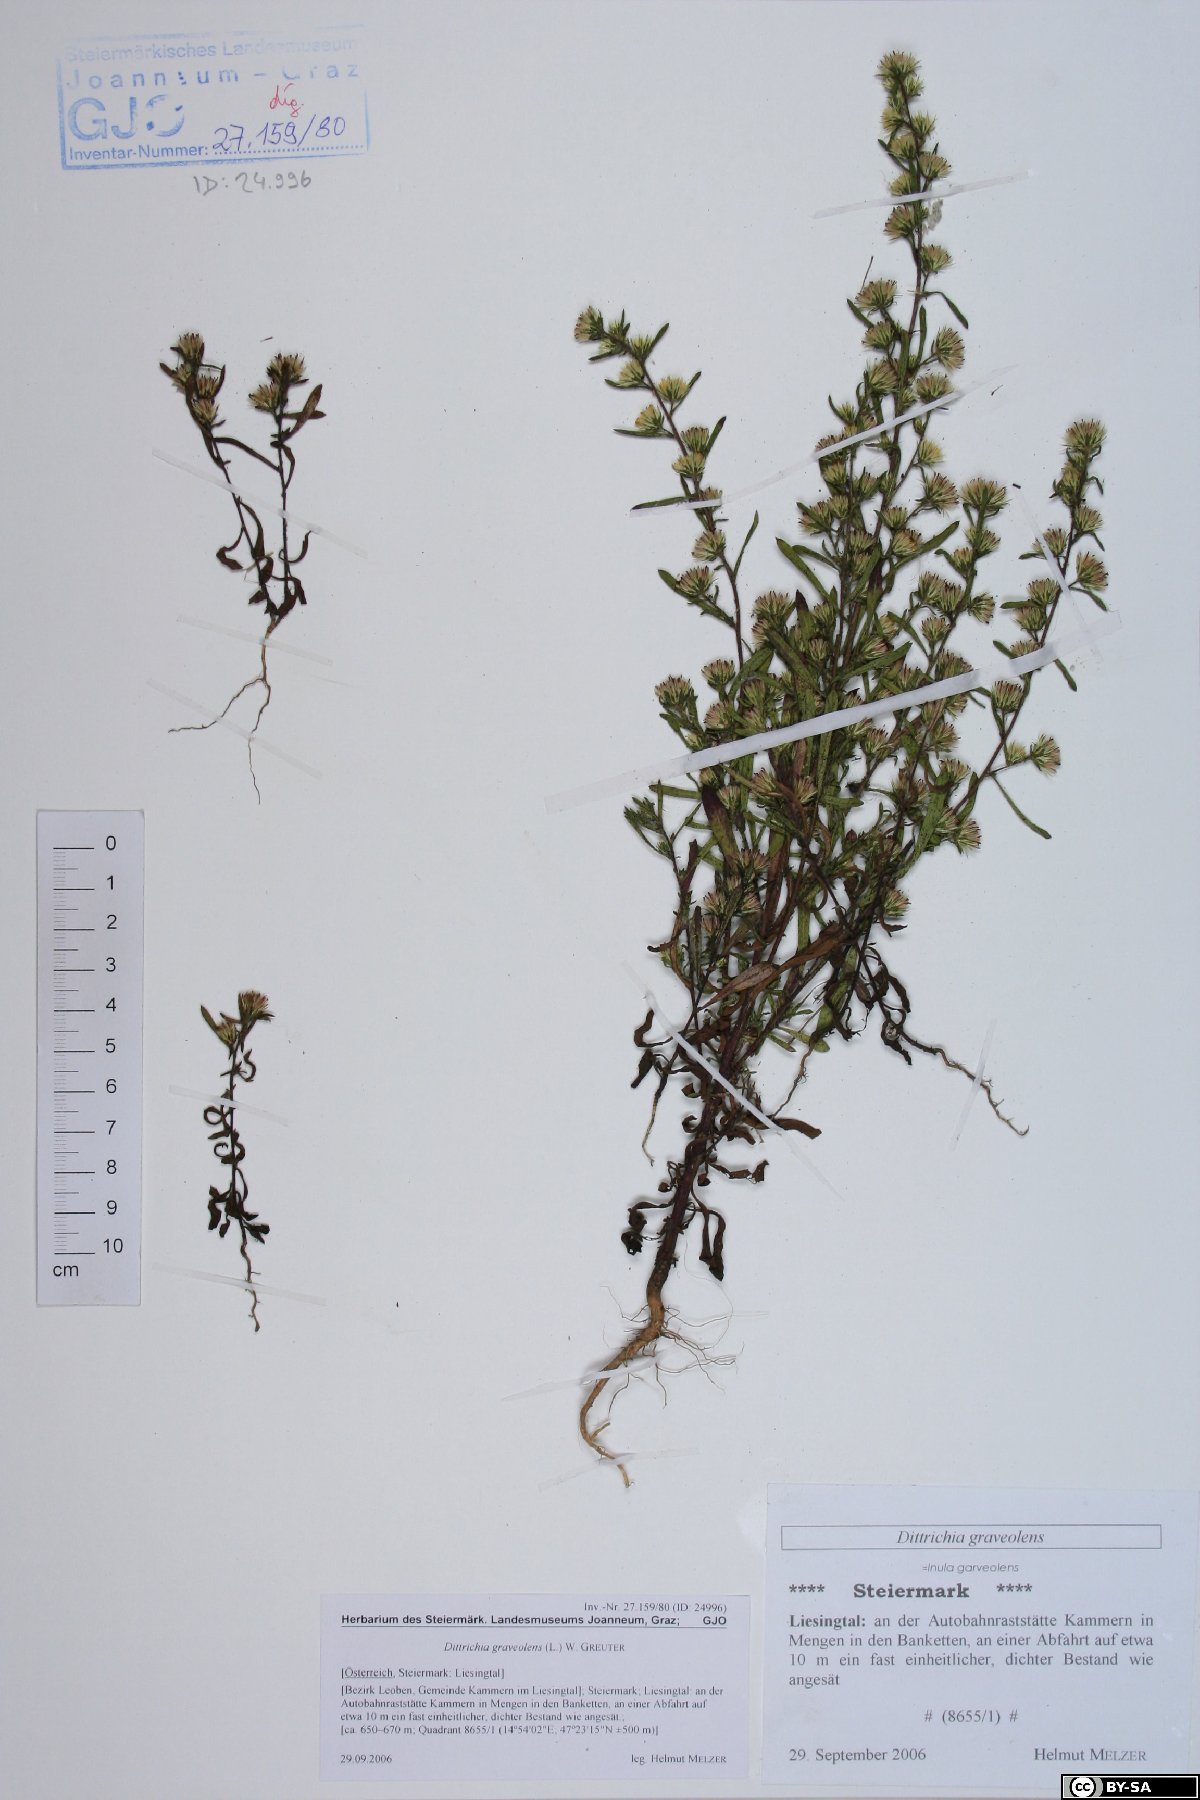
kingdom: Plantae
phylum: Tracheophyta
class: Magnoliopsida
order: Asterales
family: Asteraceae
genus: Dittrichia
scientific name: Dittrichia graveolens
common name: Stinking fleabane
